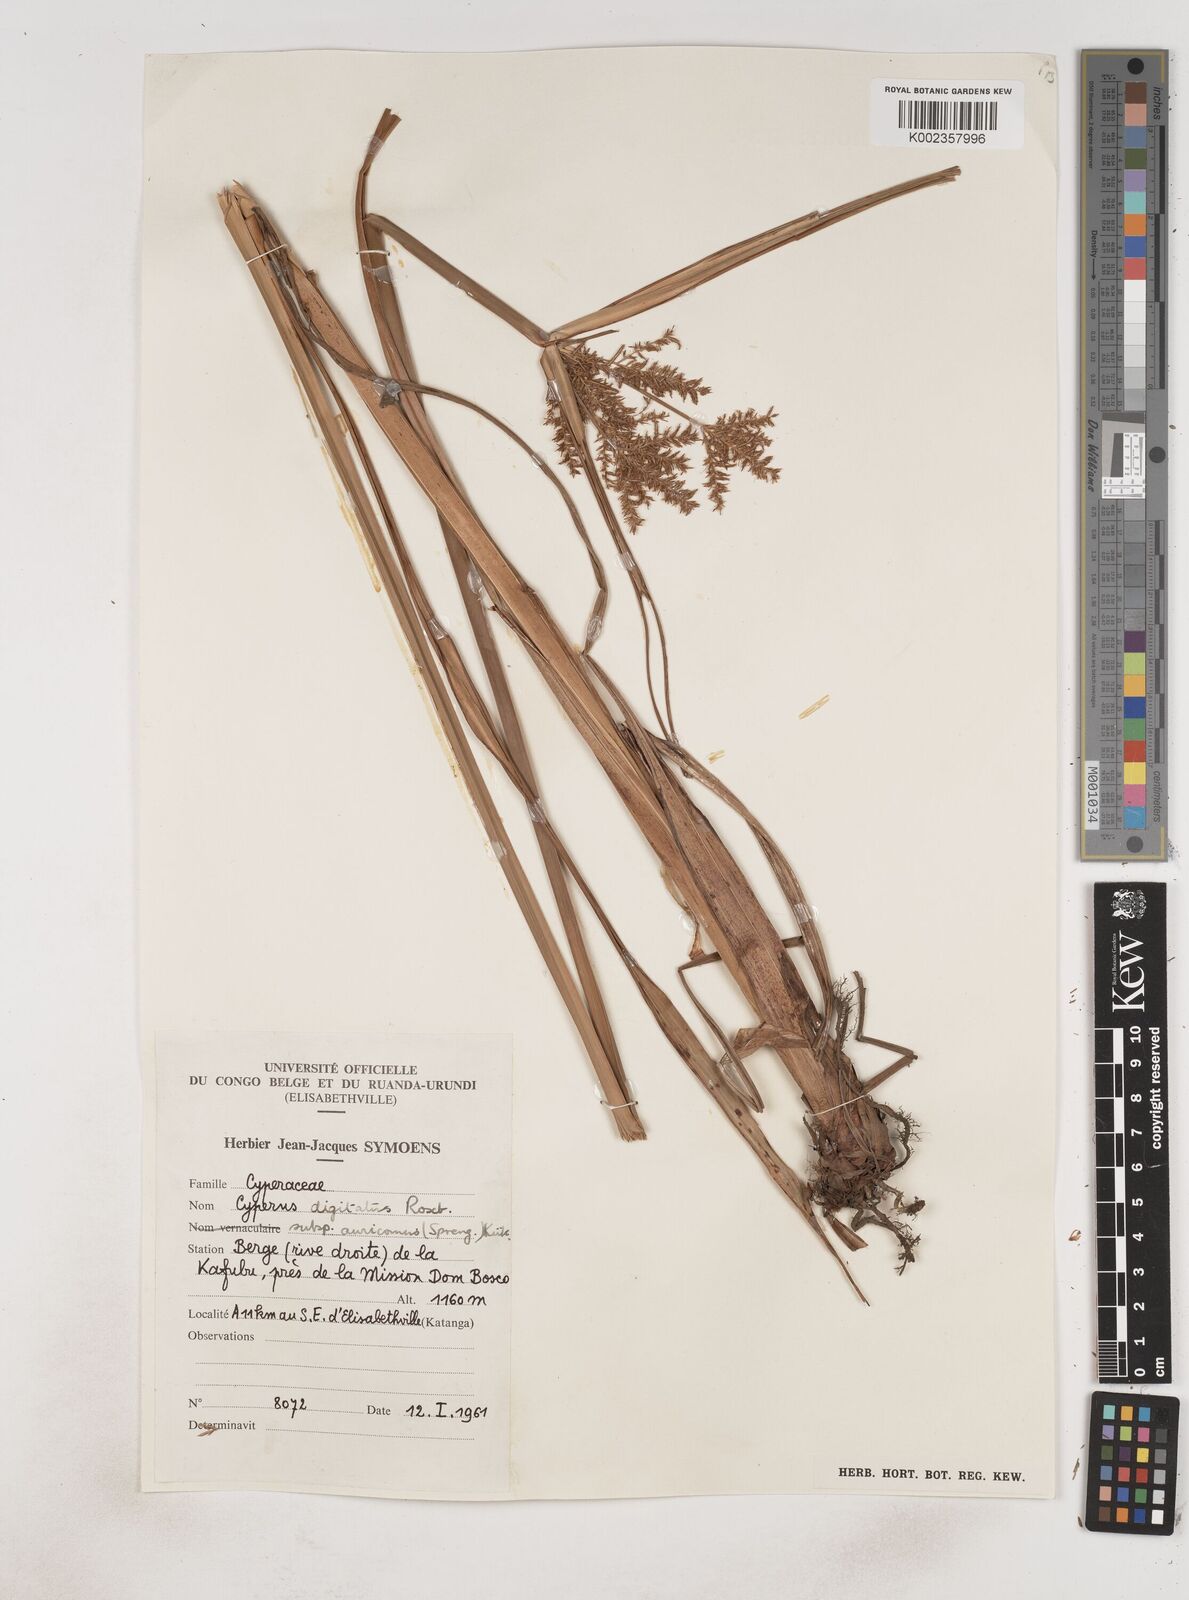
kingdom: Plantae
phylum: Tracheophyta
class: Liliopsida
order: Poales
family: Cyperaceae
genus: Cyperus
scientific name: Cyperus digitatus
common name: Finger flatsedge
